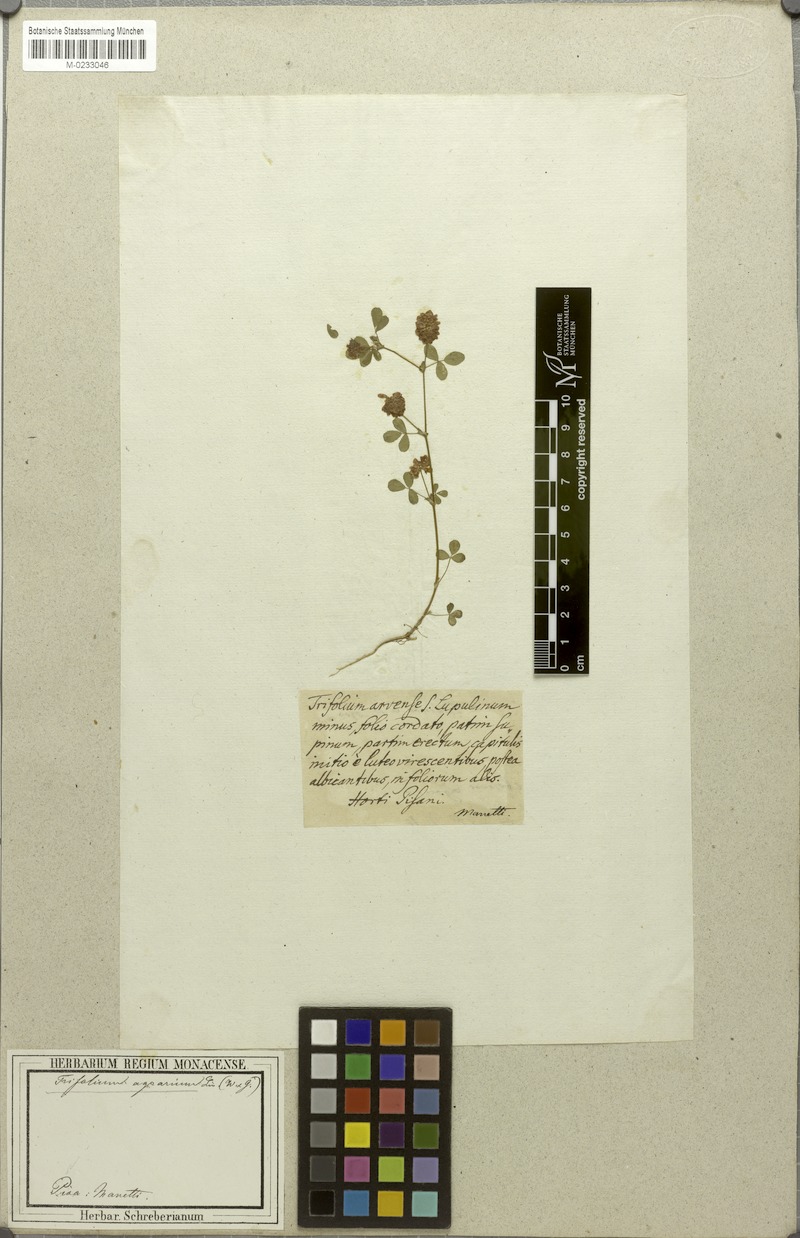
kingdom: Plantae
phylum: Tracheophyta
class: Magnoliopsida
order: Fabales
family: Fabaceae
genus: Trifolium
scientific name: Trifolium campestre
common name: Field clover
